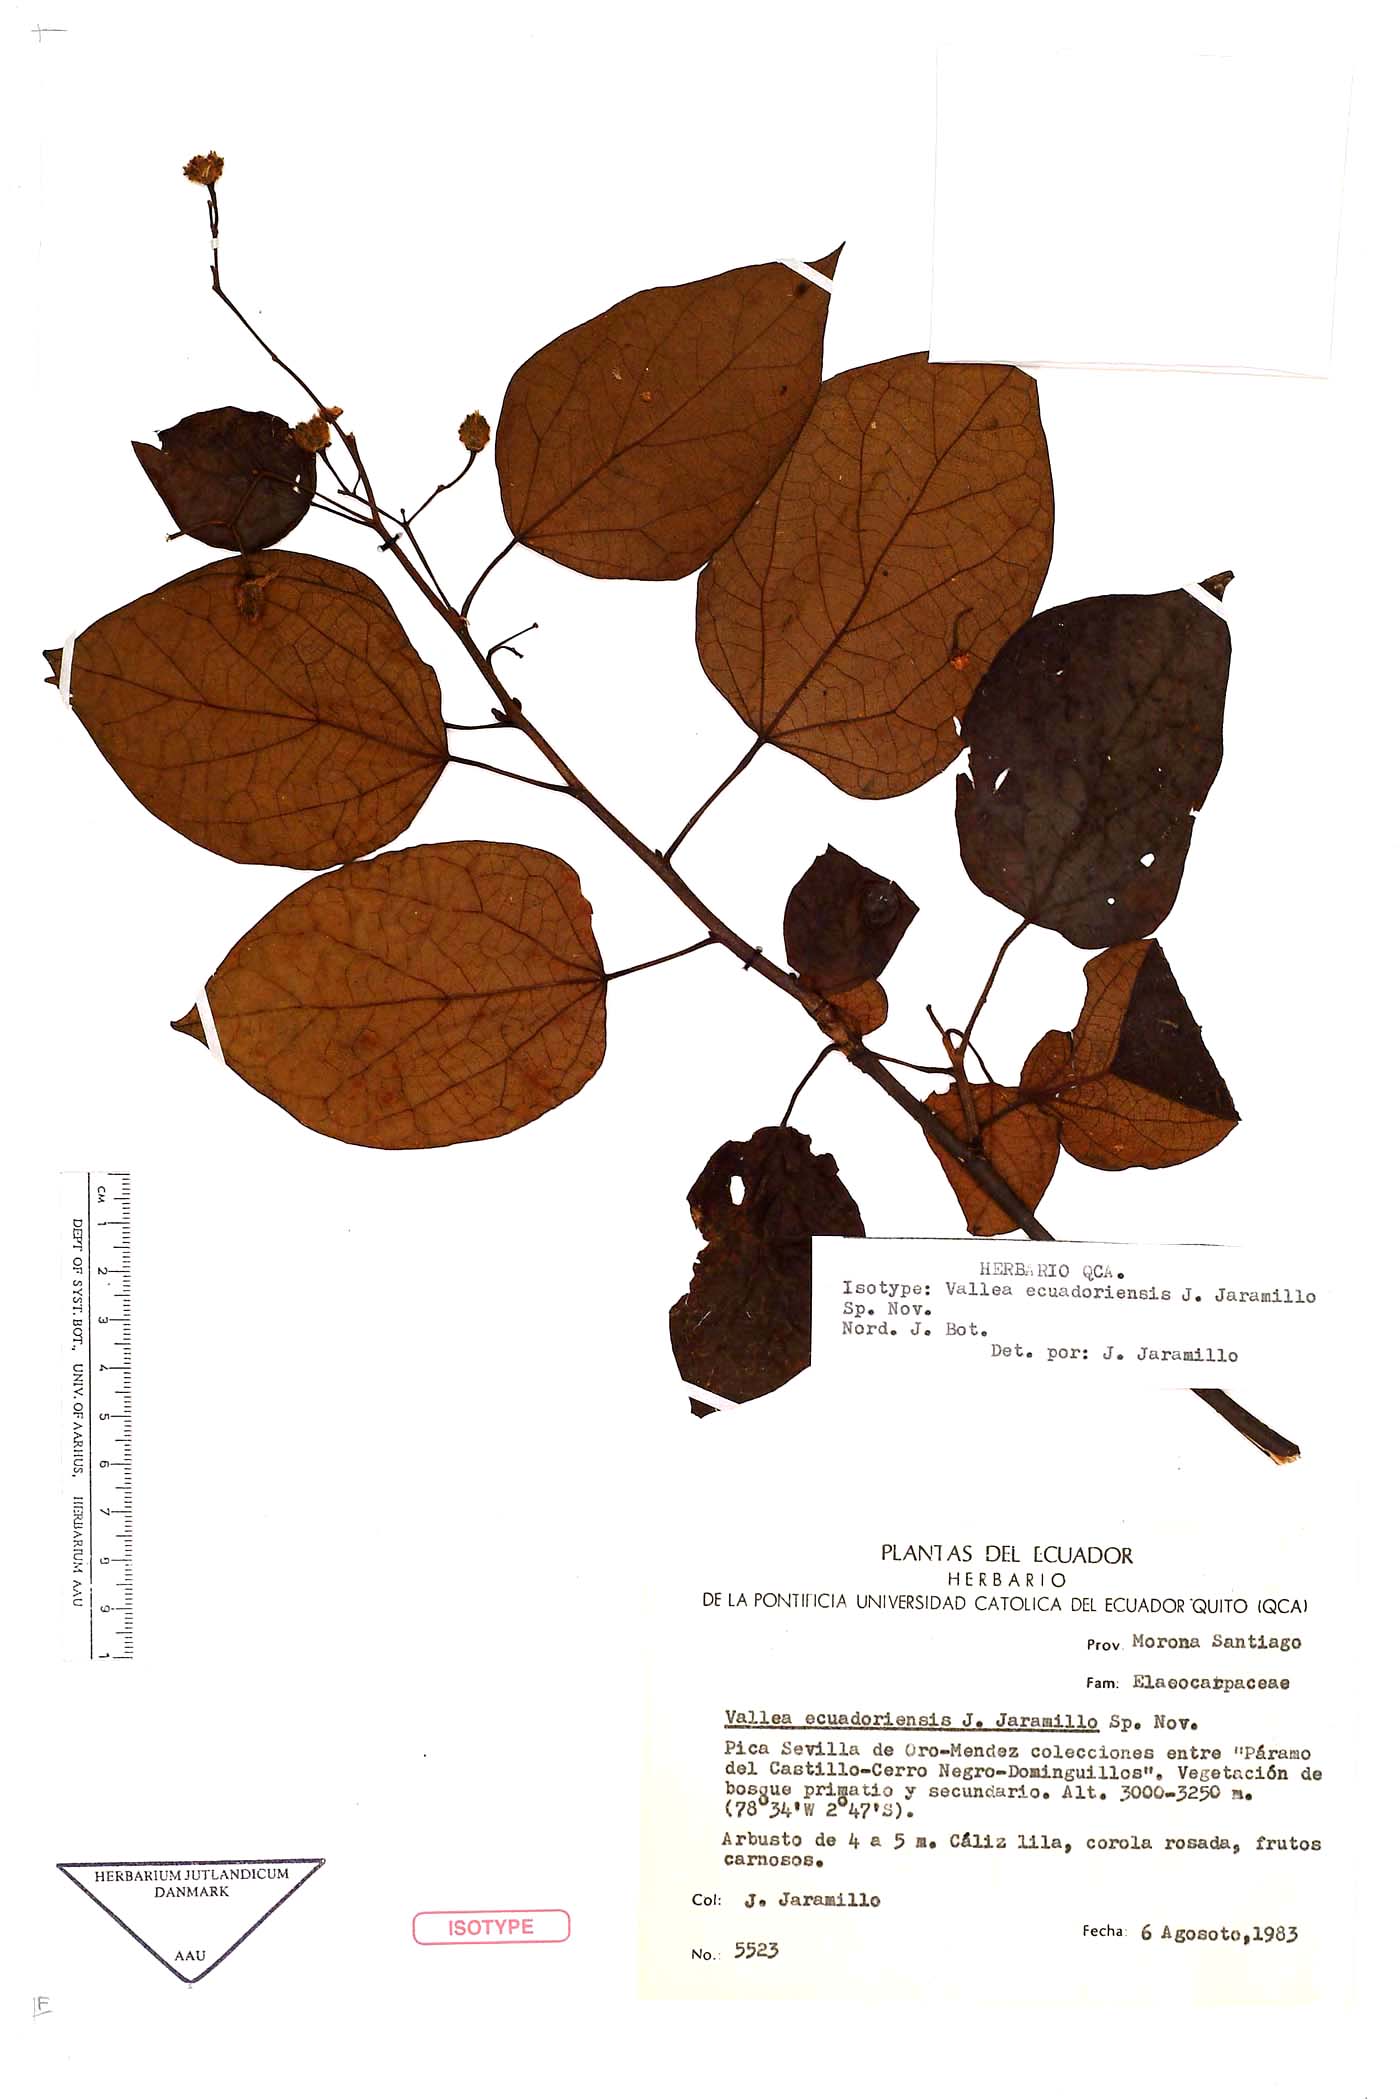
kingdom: Plantae
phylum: Tracheophyta
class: Magnoliopsida
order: Oxalidales
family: Elaeocarpaceae
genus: Vallea
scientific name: Vallea ecuadorensis
